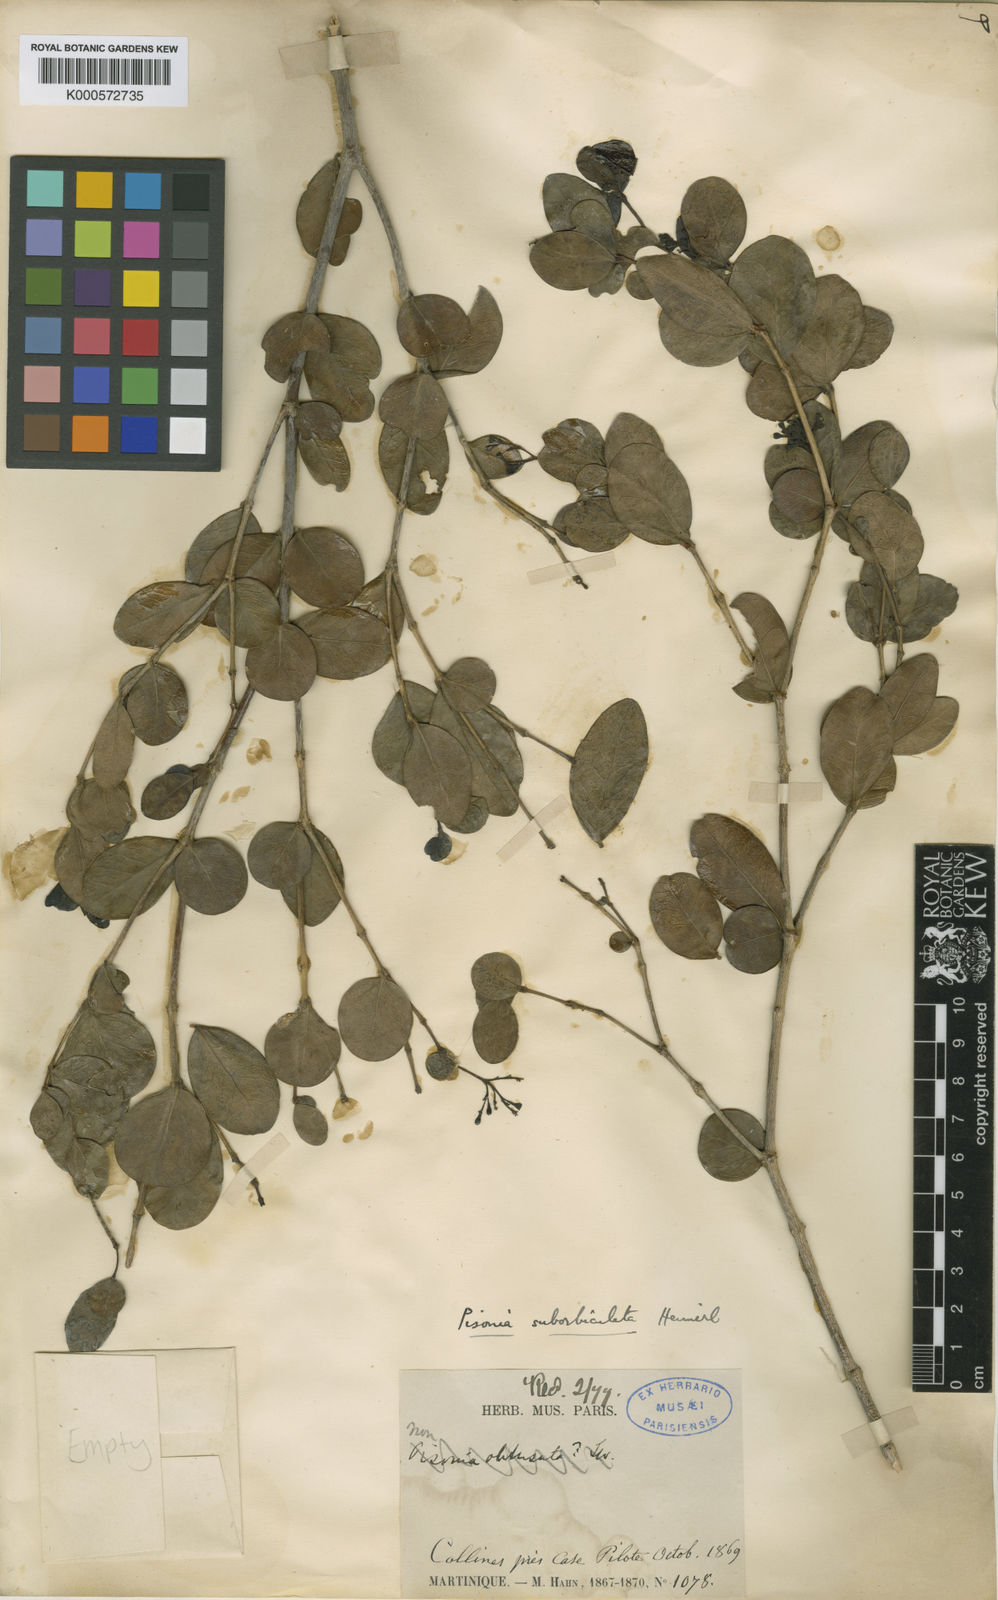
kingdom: Plantae
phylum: Tracheophyta
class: Magnoliopsida
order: Caryophyllales
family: Nyctaginaceae
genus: Guapira
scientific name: Guapira suborbiculata
